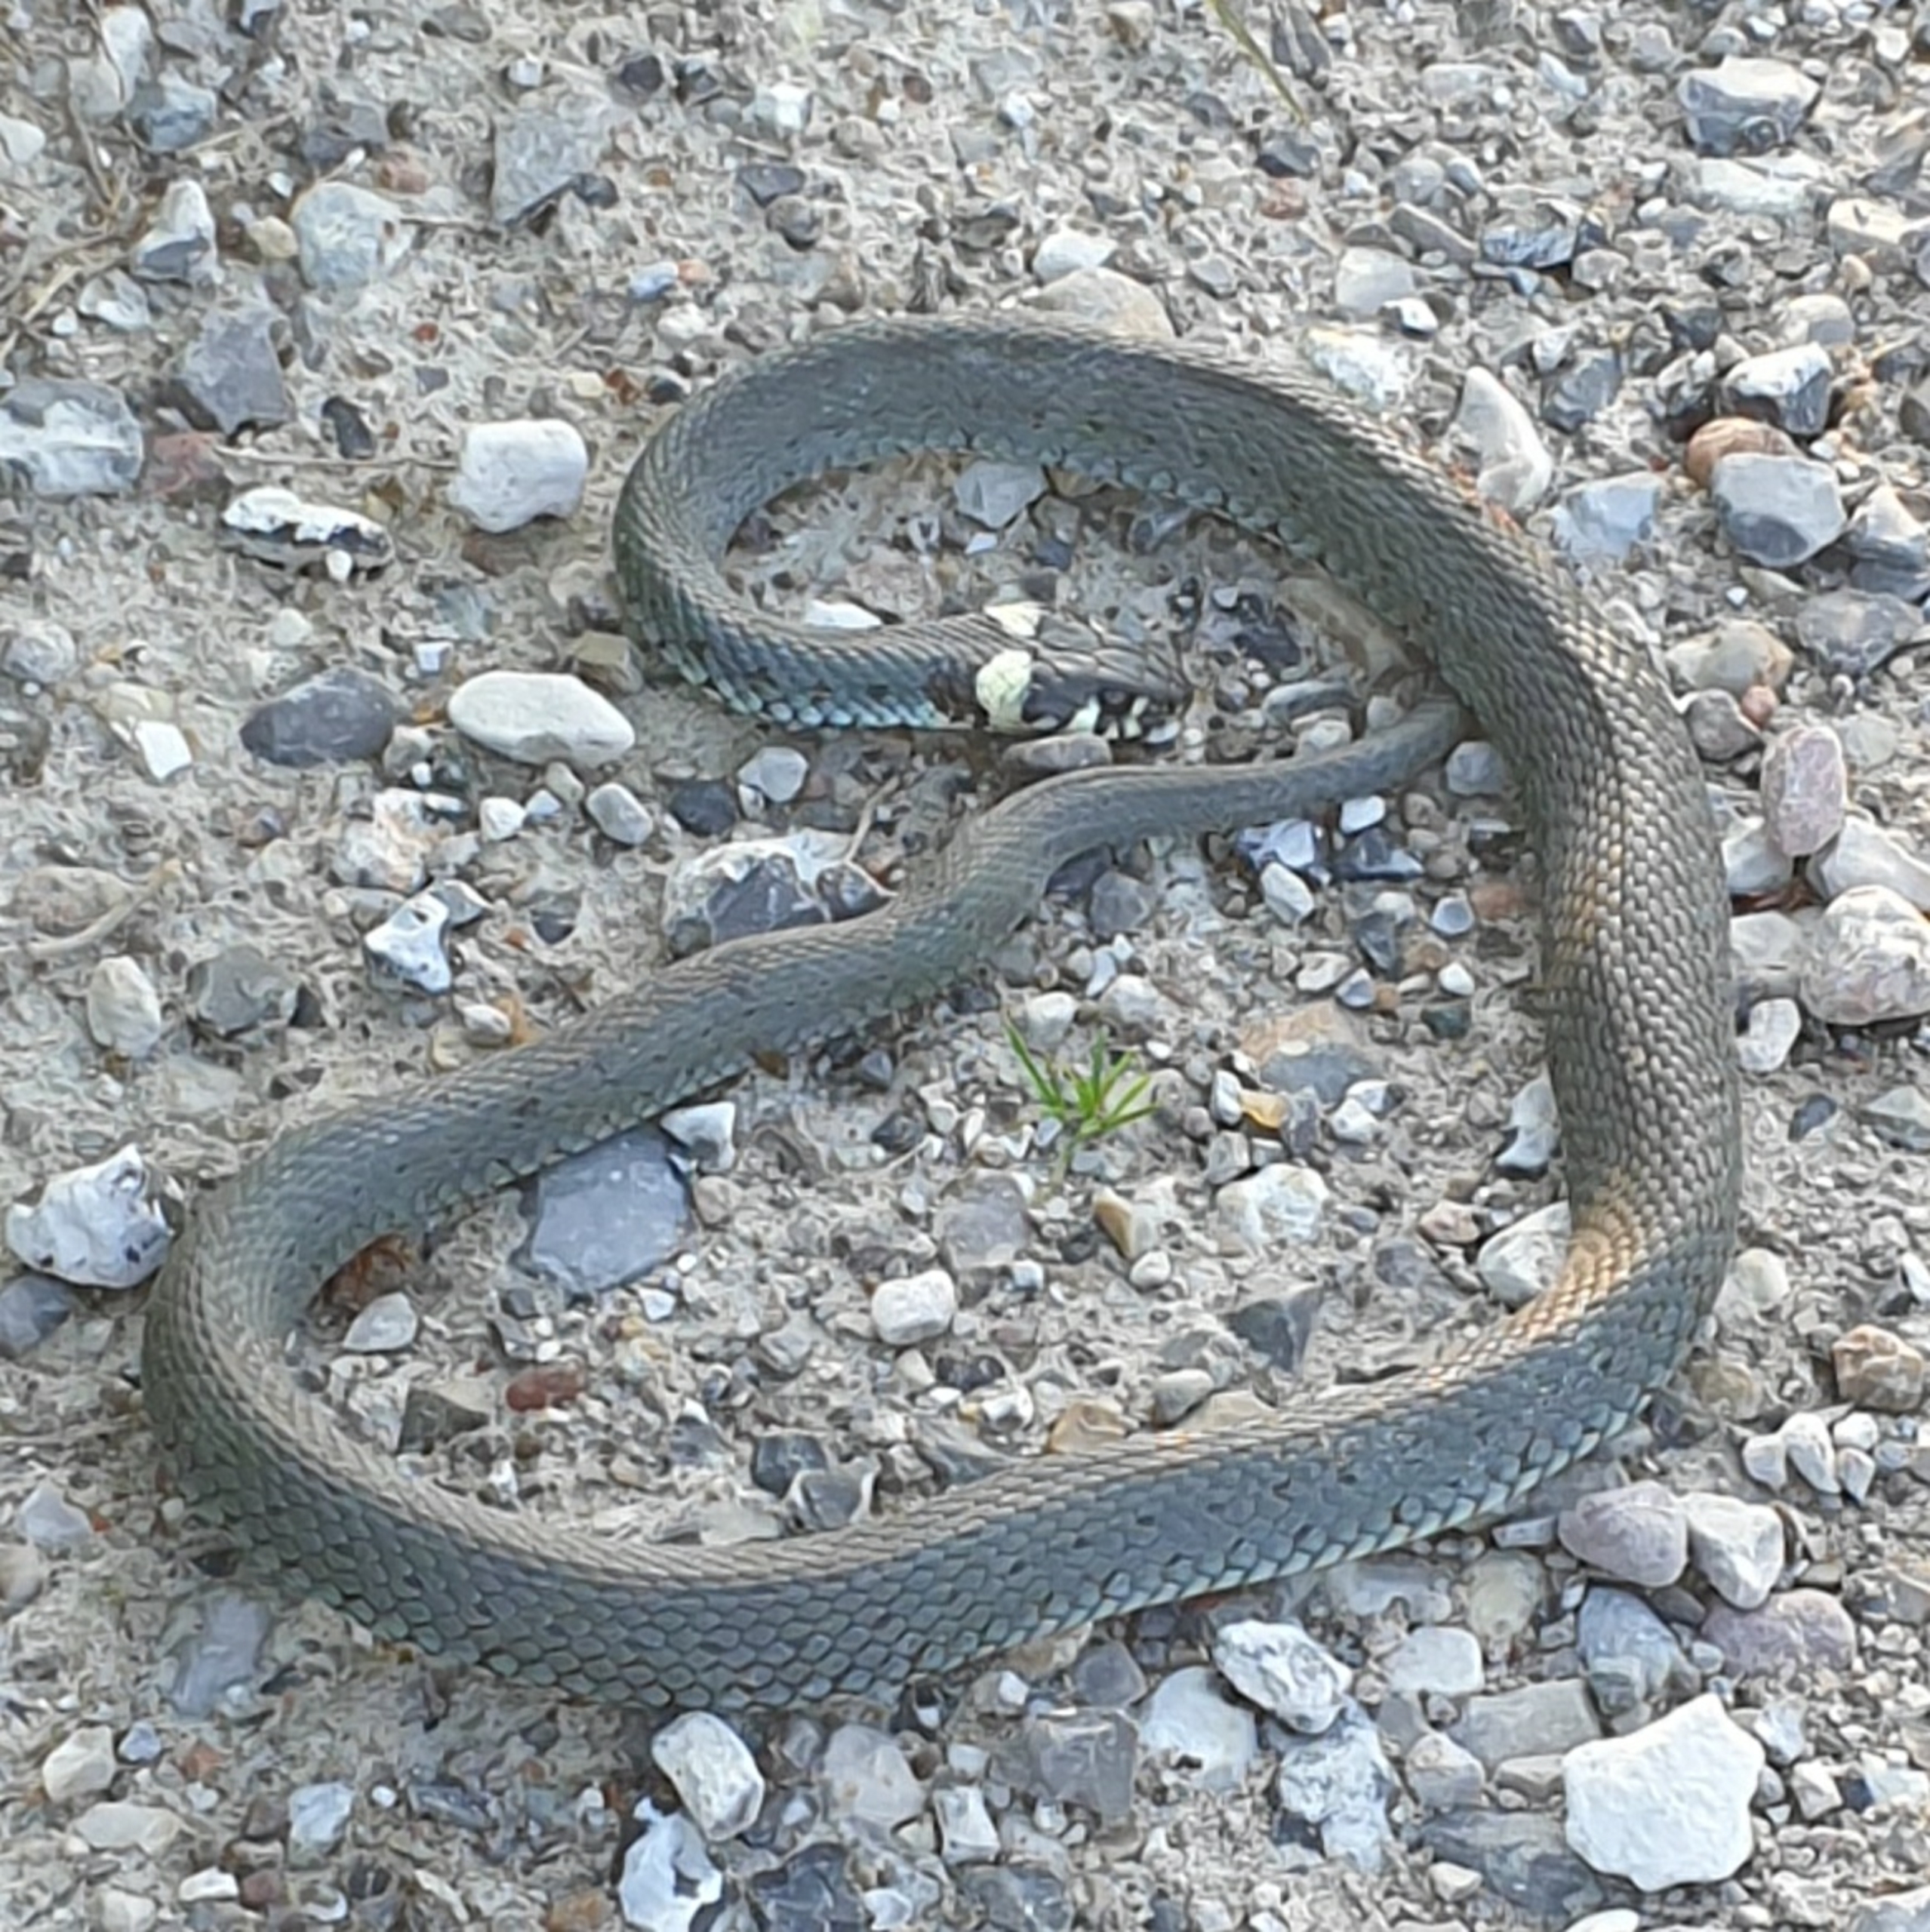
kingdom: Animalia
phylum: Chordata
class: Squamata
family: Colubridae
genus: Natrix
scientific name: Natrix natrix
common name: Snog
